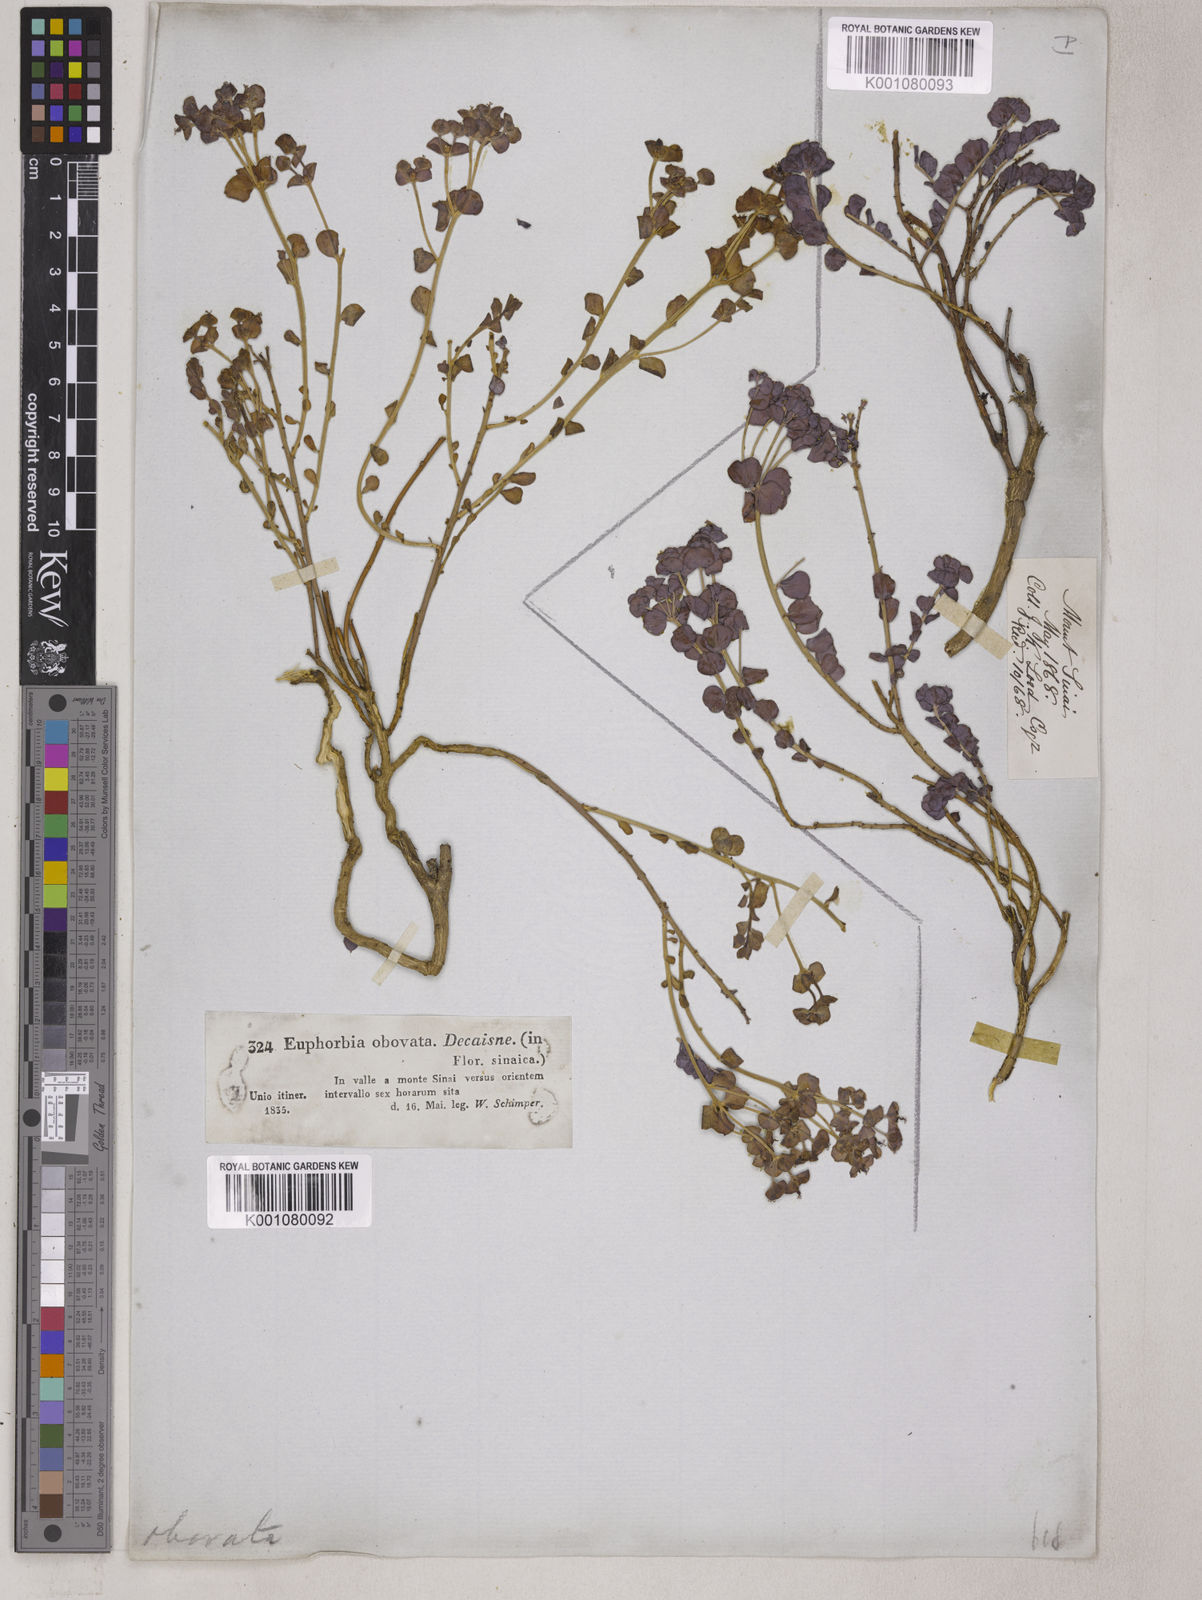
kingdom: Plantae
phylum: Tracheophyta
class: Magnoliopsida
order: Malpighiales
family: Euphorbiaceae
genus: Euphorbia
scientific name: Euphorbia plebeia
